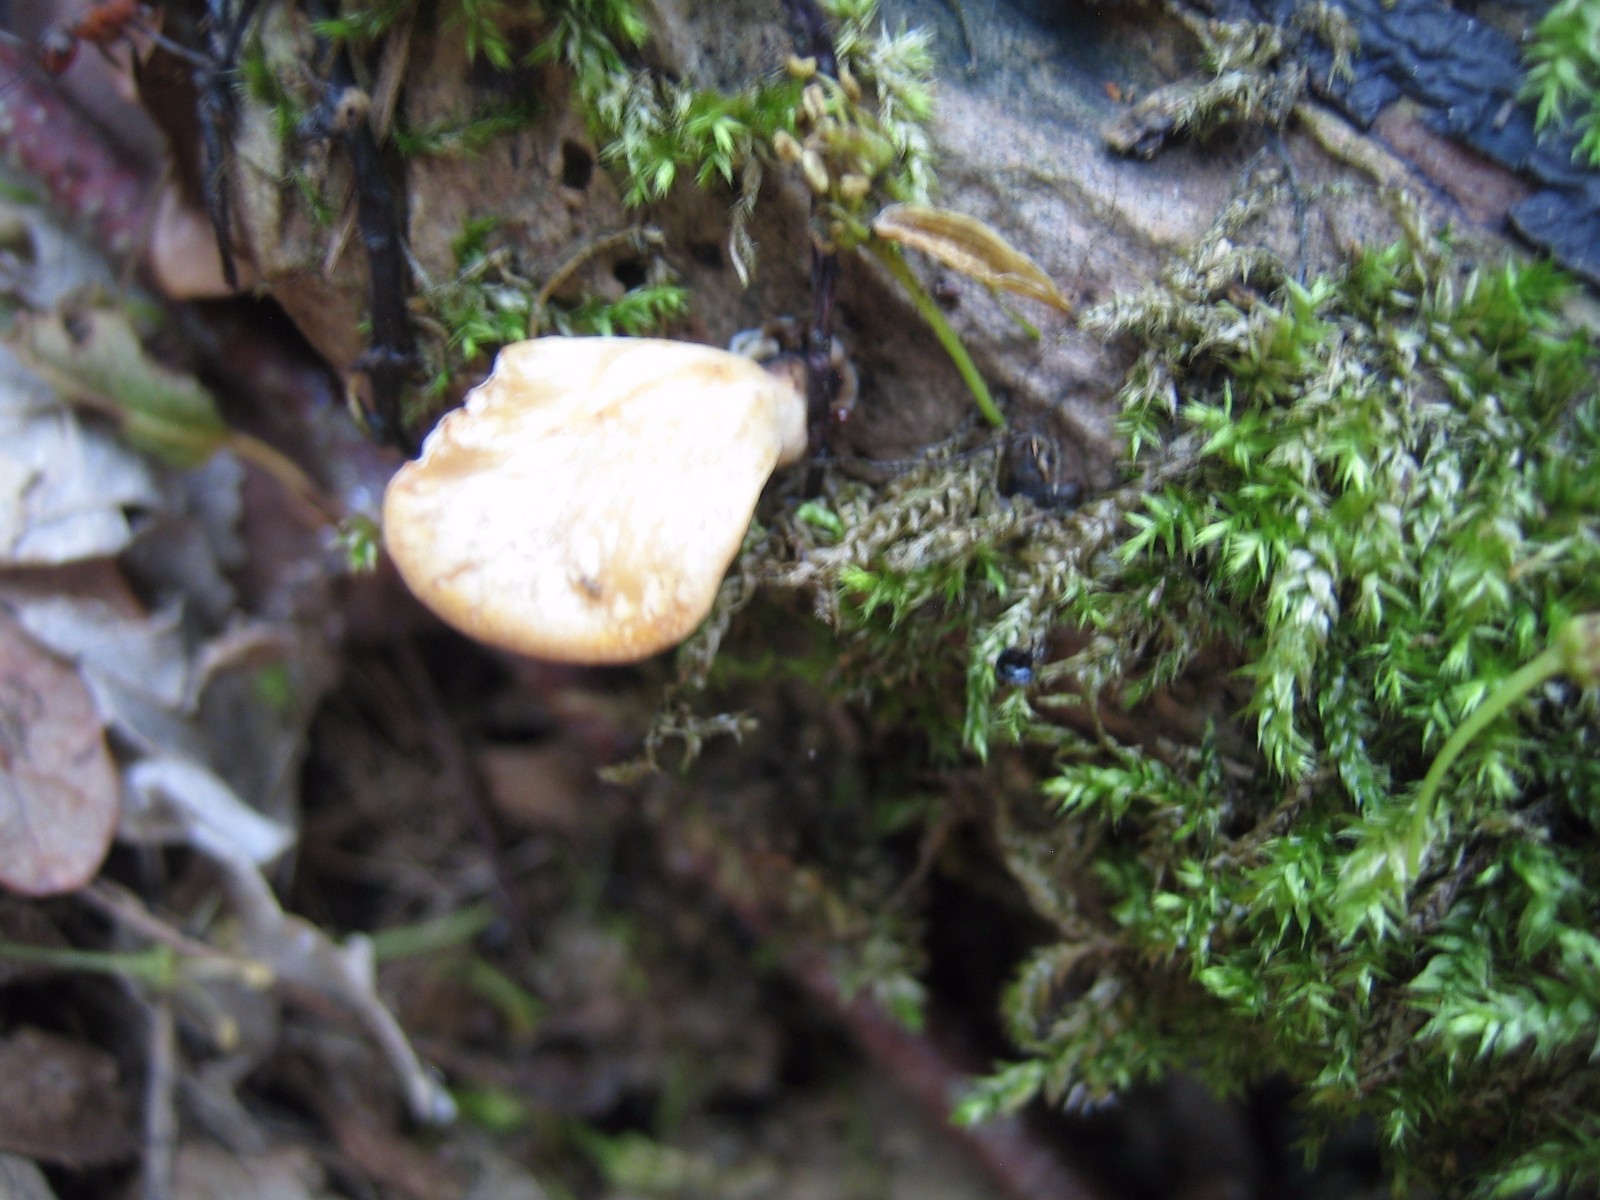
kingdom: Fungi
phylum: Basidiomycota
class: Agaricomycetes
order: Polyporales
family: Polyporaceae
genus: Cerioporus
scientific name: Cerioporus varius
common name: foranderlig stilkporesvamp
